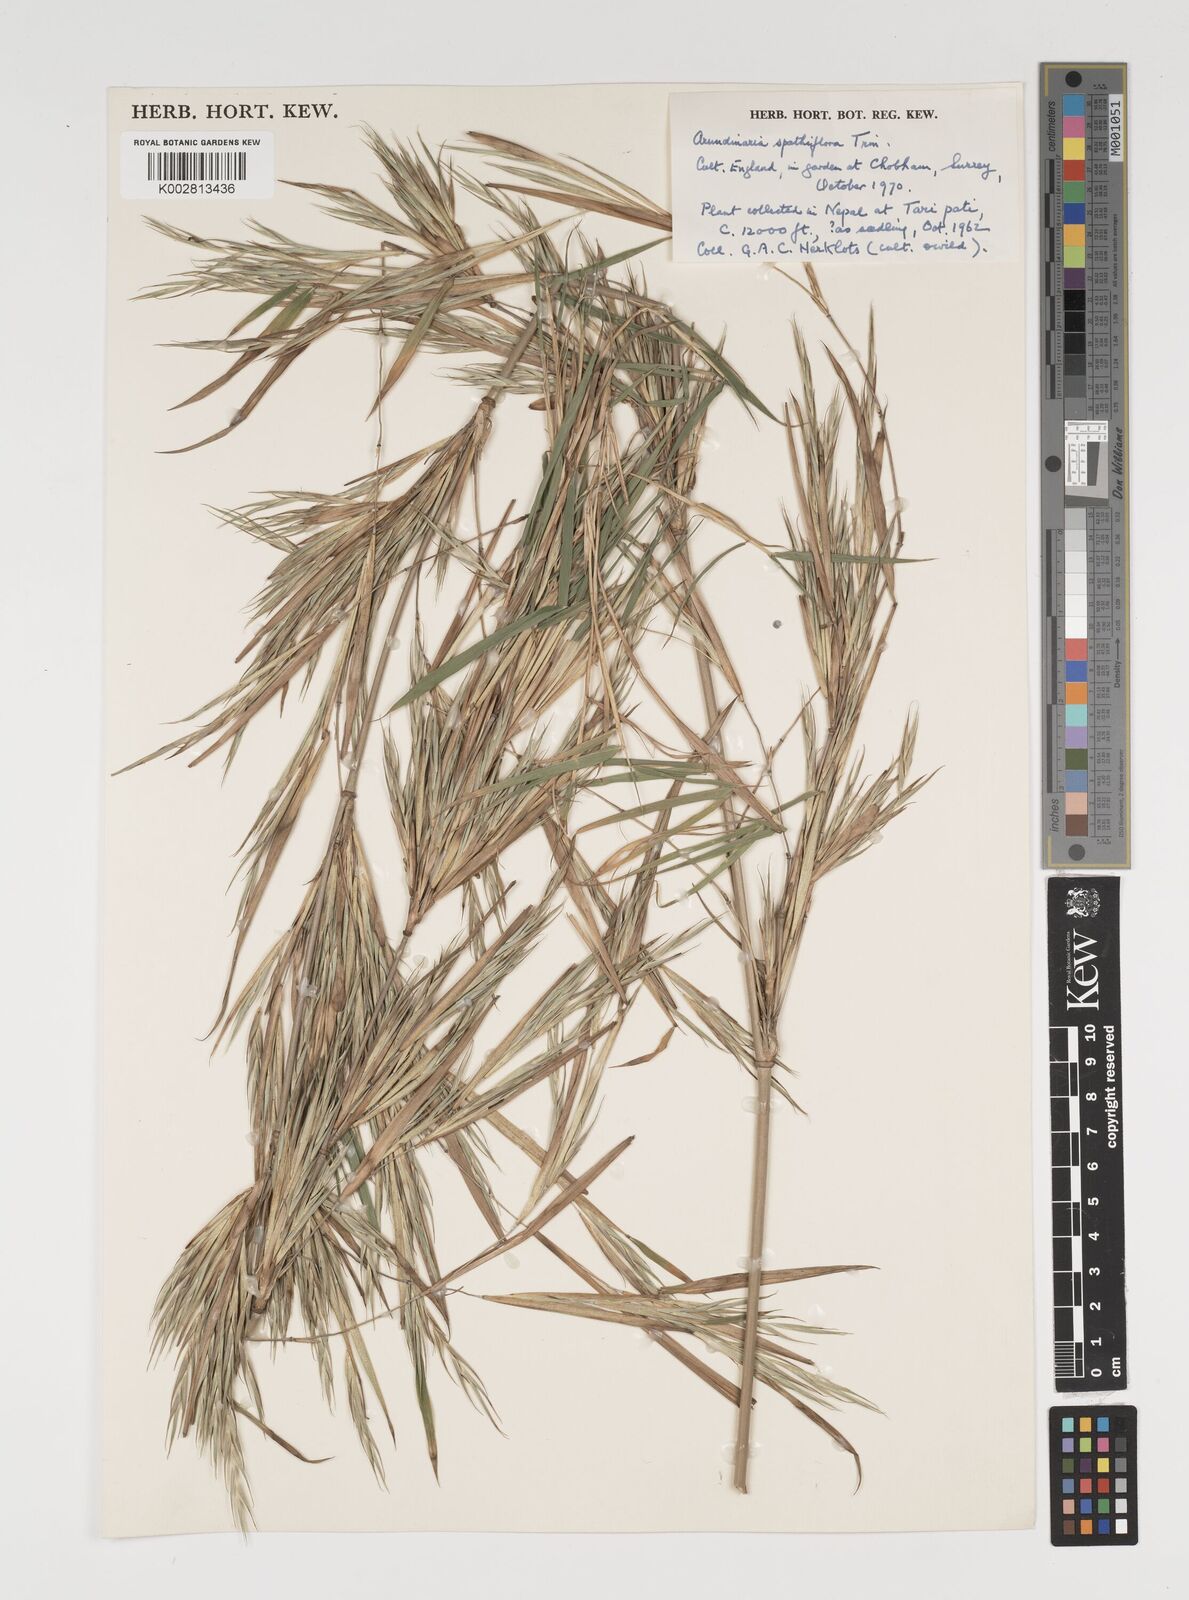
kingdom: Plantae
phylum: Tracheophyta
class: Liliopsida
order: Poales
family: Poaceae
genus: Thamnocalamus
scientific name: Thamnocalamus
